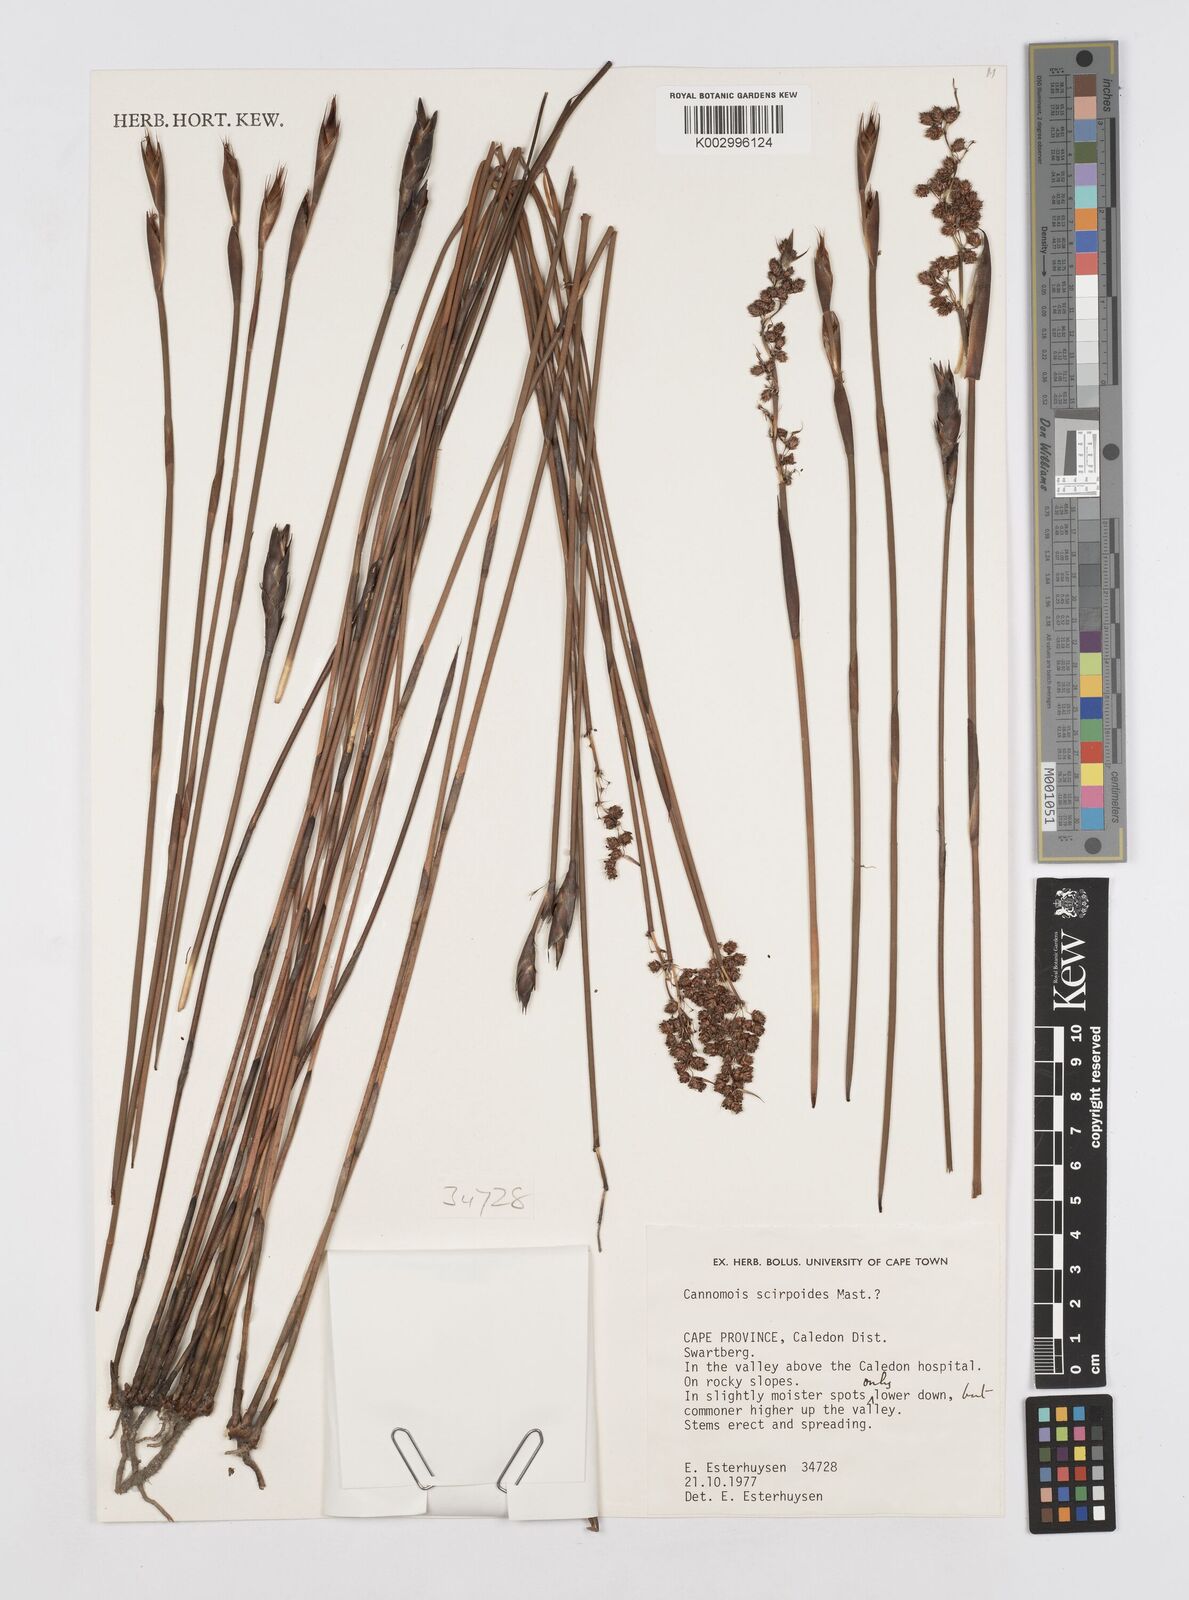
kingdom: Plantae
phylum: Tracheophyta
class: Liliopsida
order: Poales
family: Restionaceae
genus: Cannomois
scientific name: Cannomois scirpoides
